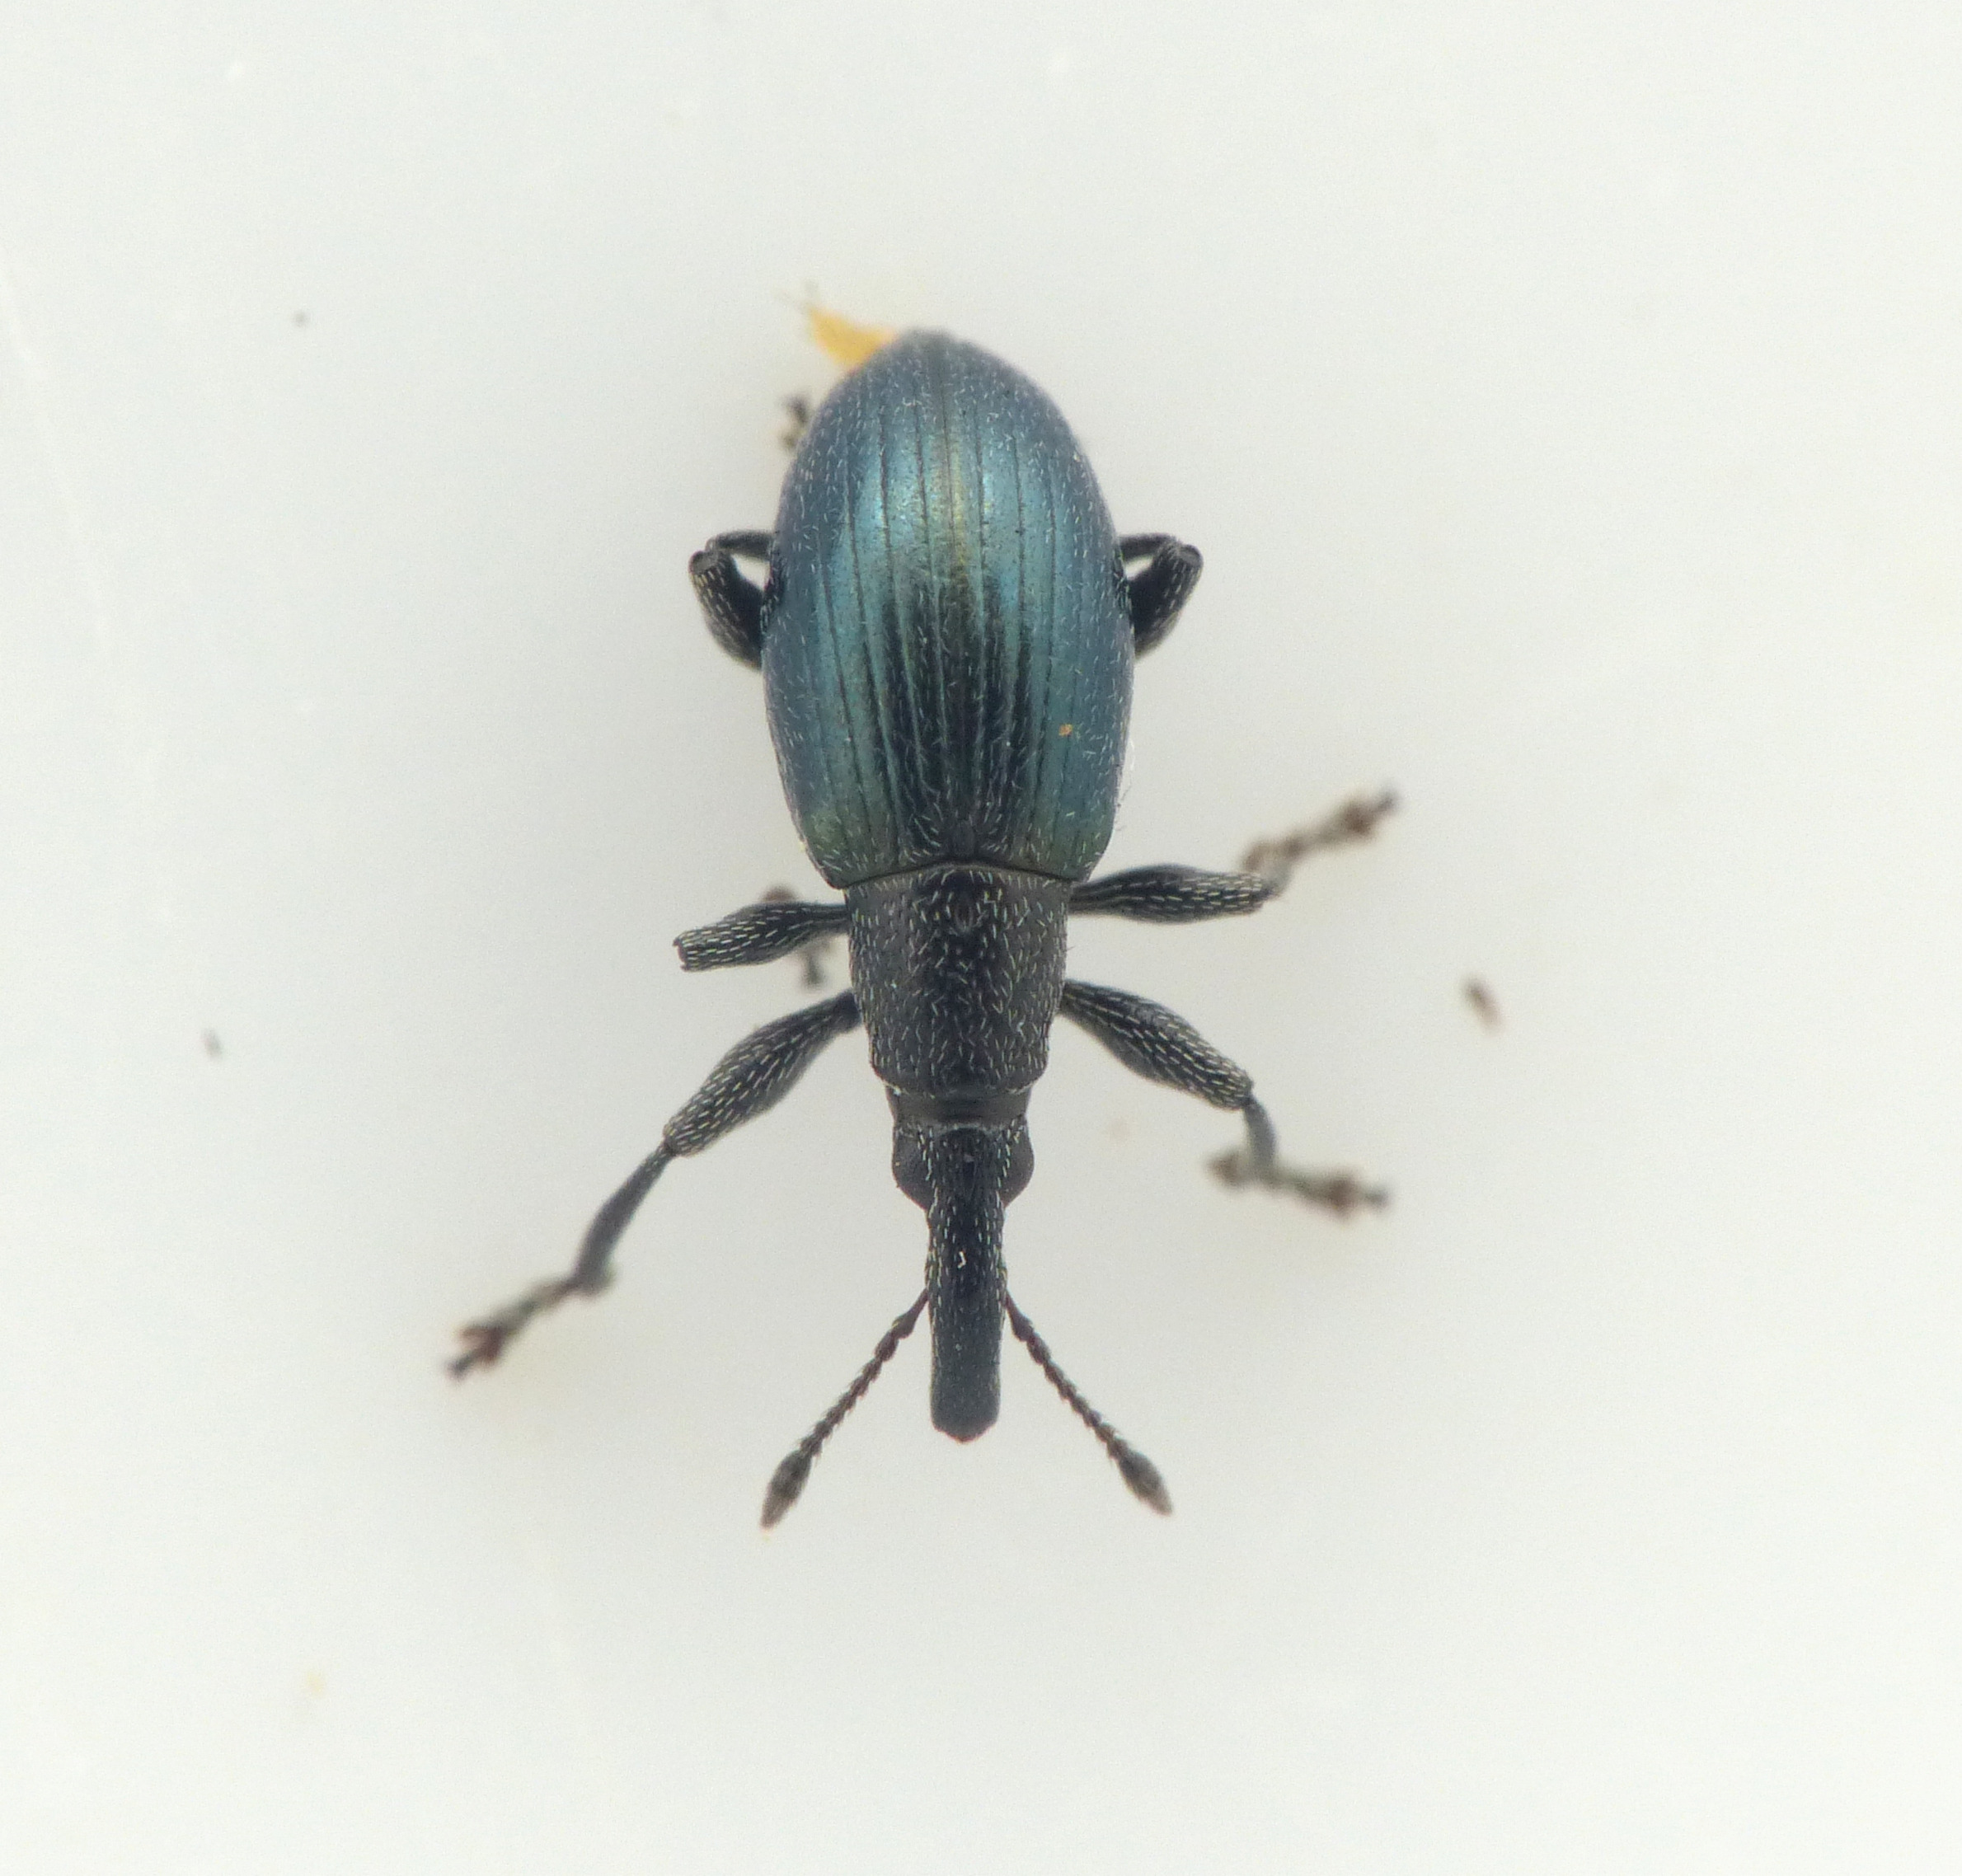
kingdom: Animalia
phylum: Arthropoda
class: Insecta
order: Coleoptera
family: Curculionidae
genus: Sphenomorpha
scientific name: Sphenomorpha aenea
